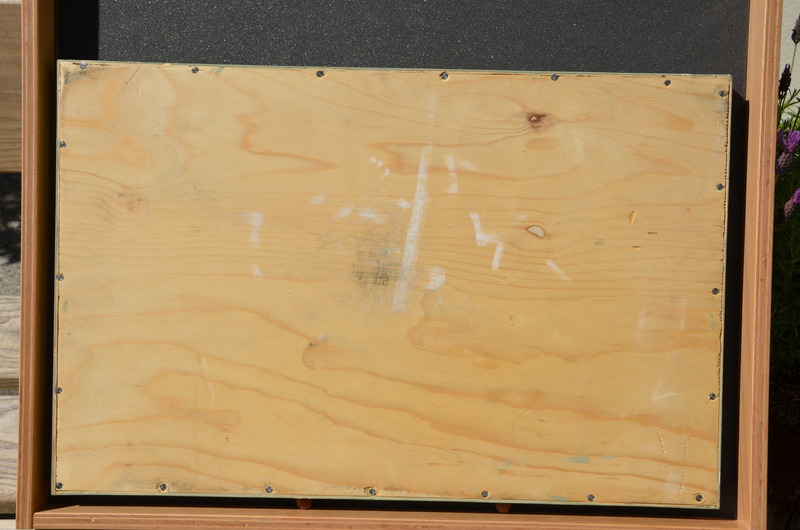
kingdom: Animalia
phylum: Chordata
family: Mesturidae
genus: Mesturus
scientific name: Mesturus verrucosus
